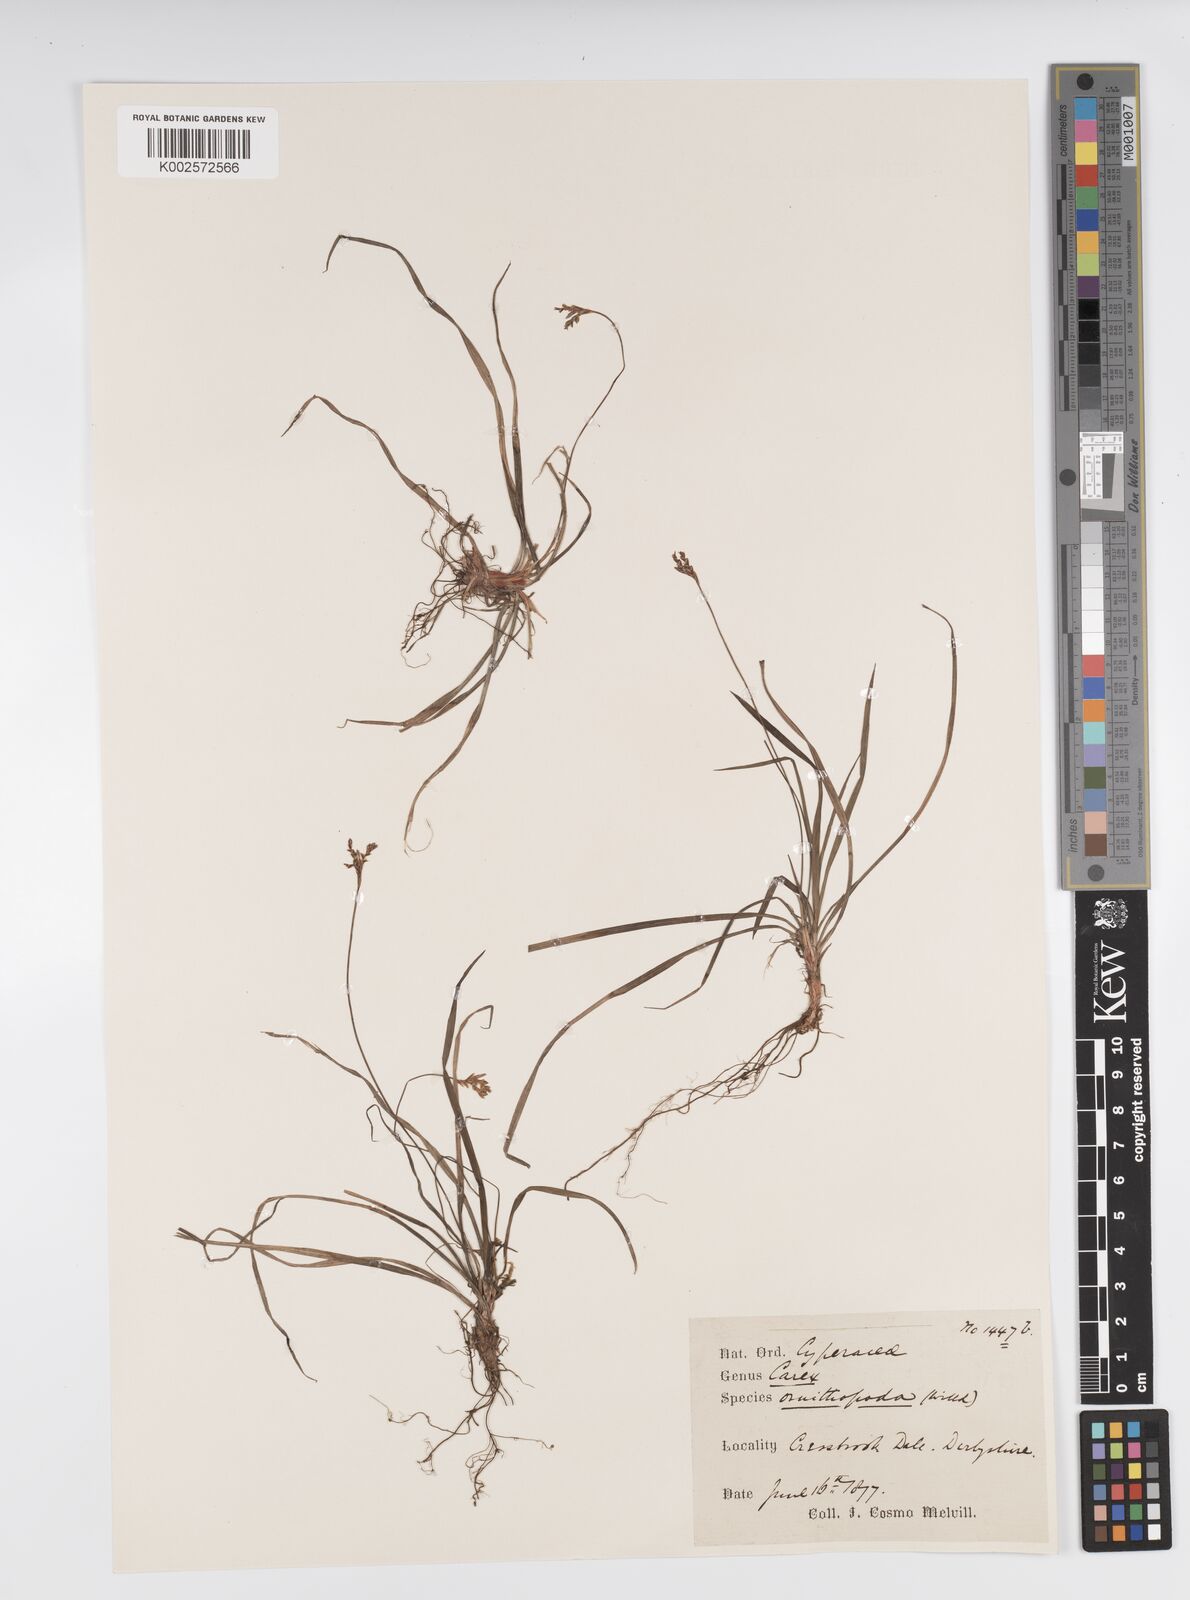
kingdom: Plantae
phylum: Tracheophyta
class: Liliopsida
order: Poales
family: Cyperaceae
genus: Carex
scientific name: Carex ornithopoda
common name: Bird's-foot sedge
